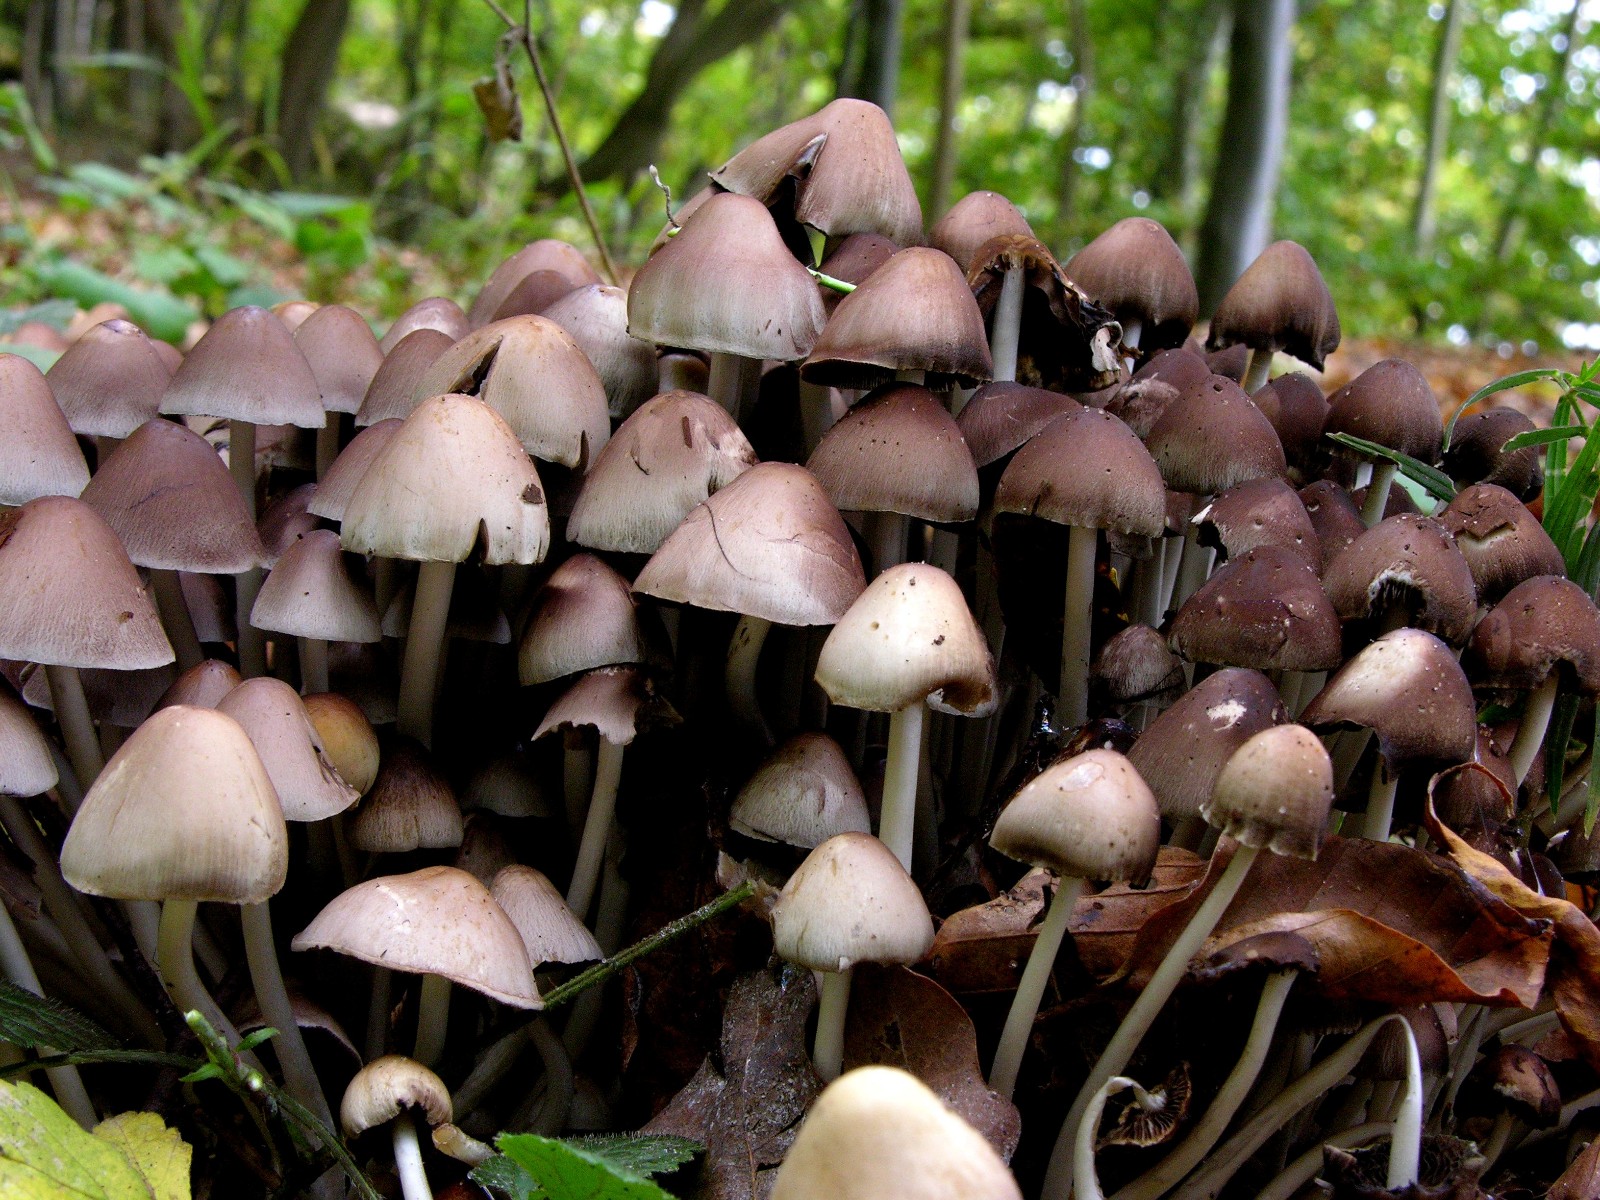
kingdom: Fungi
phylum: Basidiomycota
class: Agaricomycetes
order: Agaricales
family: Psathyrellaceae
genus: Britzelmayria
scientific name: Britzelmayria multipedata
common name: knippe-mørkhat
